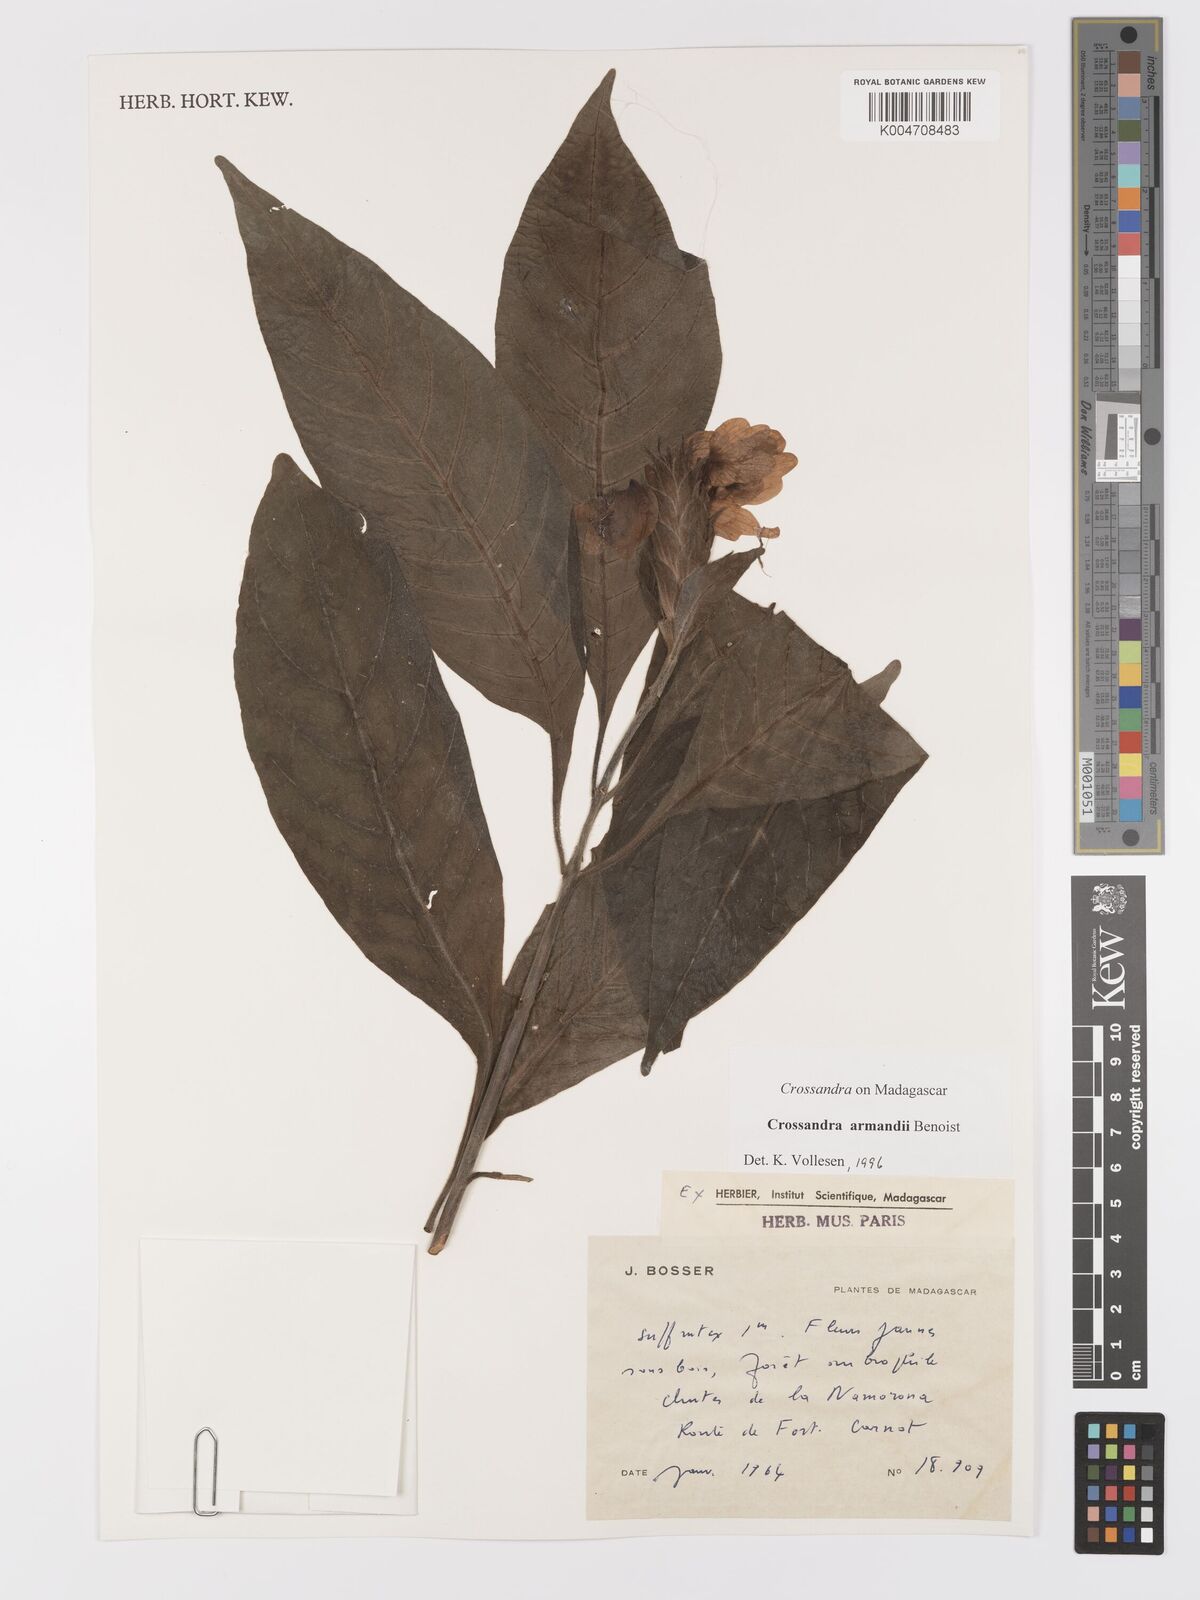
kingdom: Plantae
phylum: Tracheophyta
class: Magnoliopsida
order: Lamiales
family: Acanthaceae
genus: Crossandra
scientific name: Crossandra armandii
